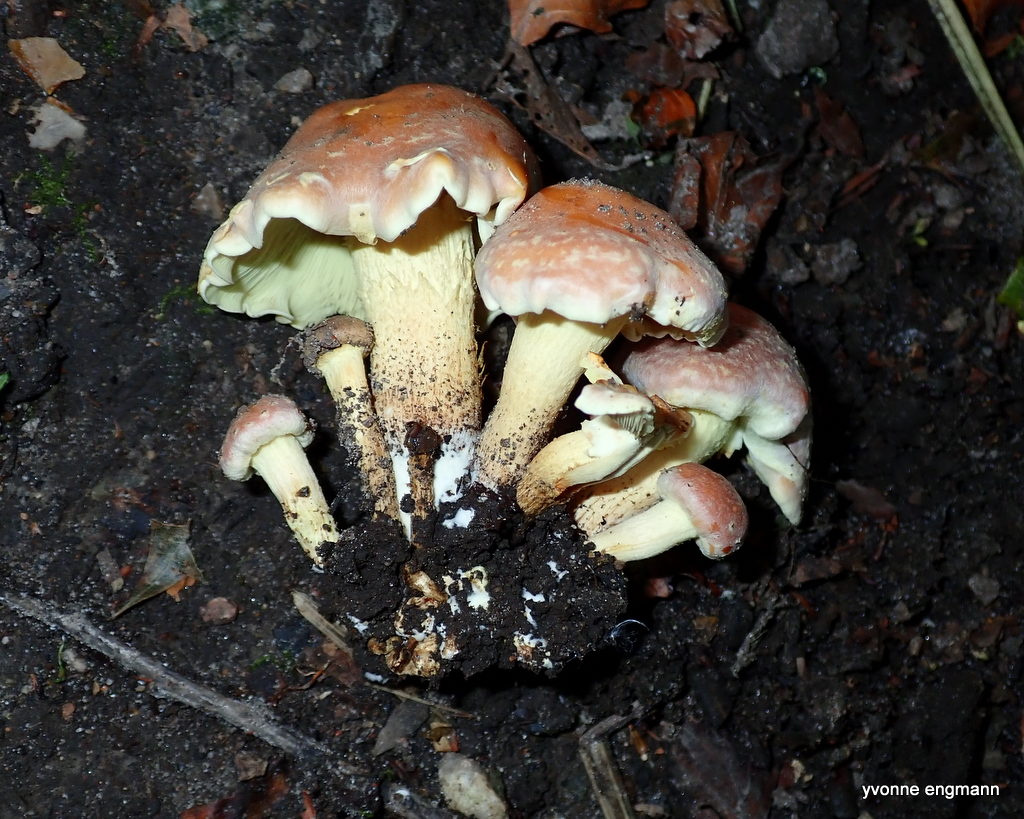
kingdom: Fungi
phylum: Basidiomycota
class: Agaricomycetes
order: Agaricales
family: Strophariaceae
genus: Hypholoma
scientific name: Hypholoma fasciculare
